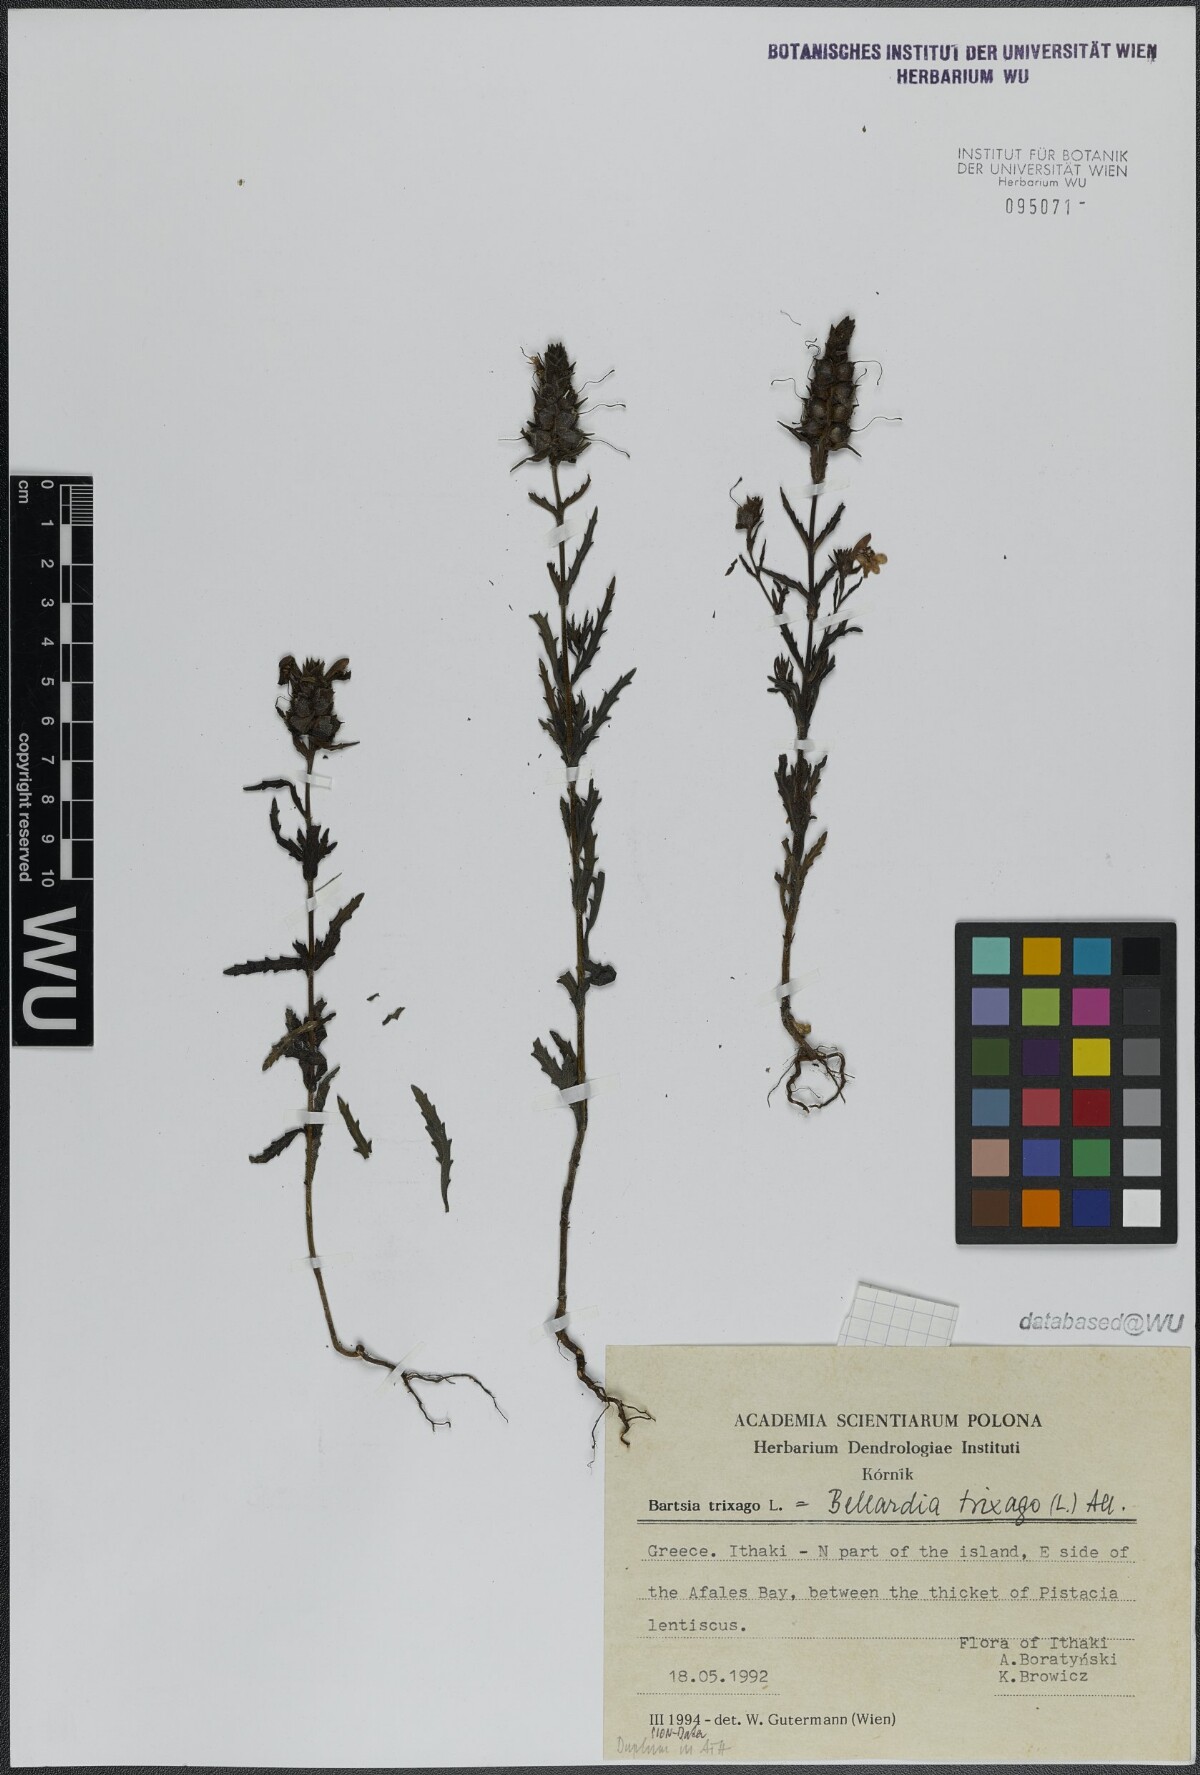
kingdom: Plantae
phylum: Tracheophyta
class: Magnoliopsida
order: Lamiales
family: Orobanchaceae
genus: Bellardia
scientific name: Bellardia trixago
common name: Mediterranean lineseed
